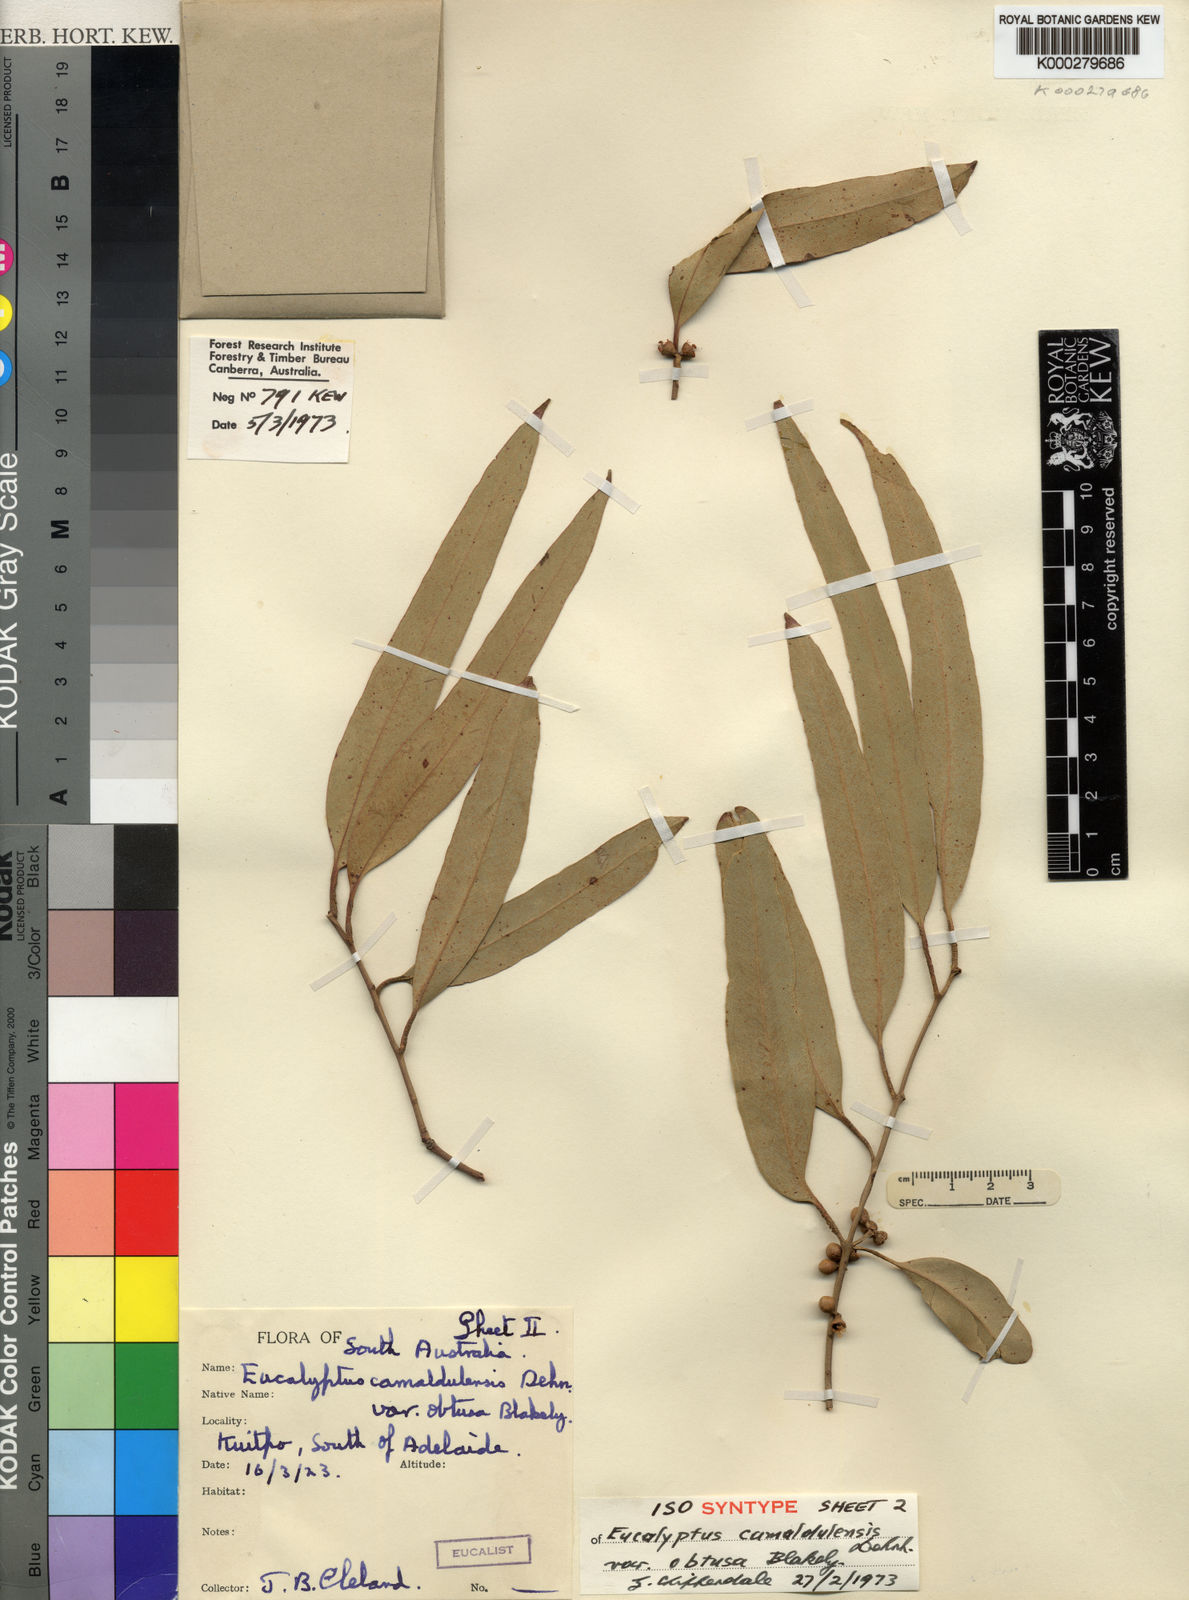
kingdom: Plantae
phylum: Tracheophyta
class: Magnoliopsida
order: Myrtales
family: Myrtaceae
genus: Eucalyptus
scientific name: Eucalyptus camaldulensis
